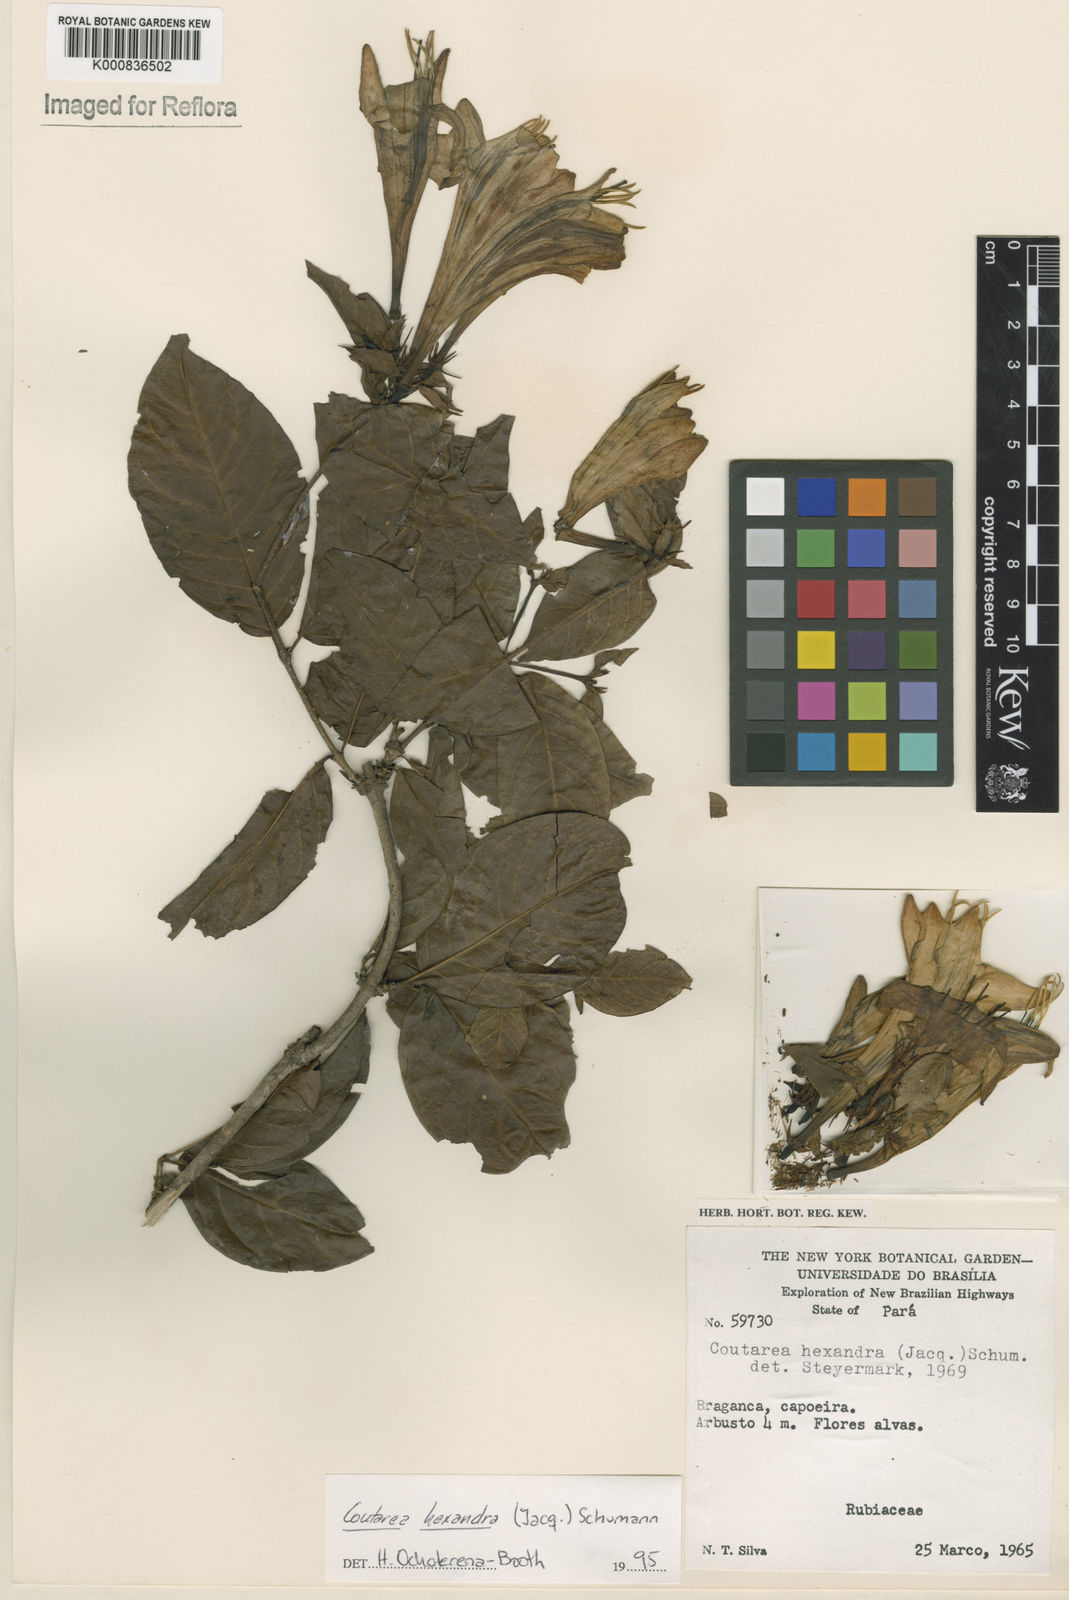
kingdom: Plantae
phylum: Tracheophyta
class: Magnoliopsida
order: Gentianales
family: Rubiaceae
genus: Coutarea
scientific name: Coutarea hexandra
